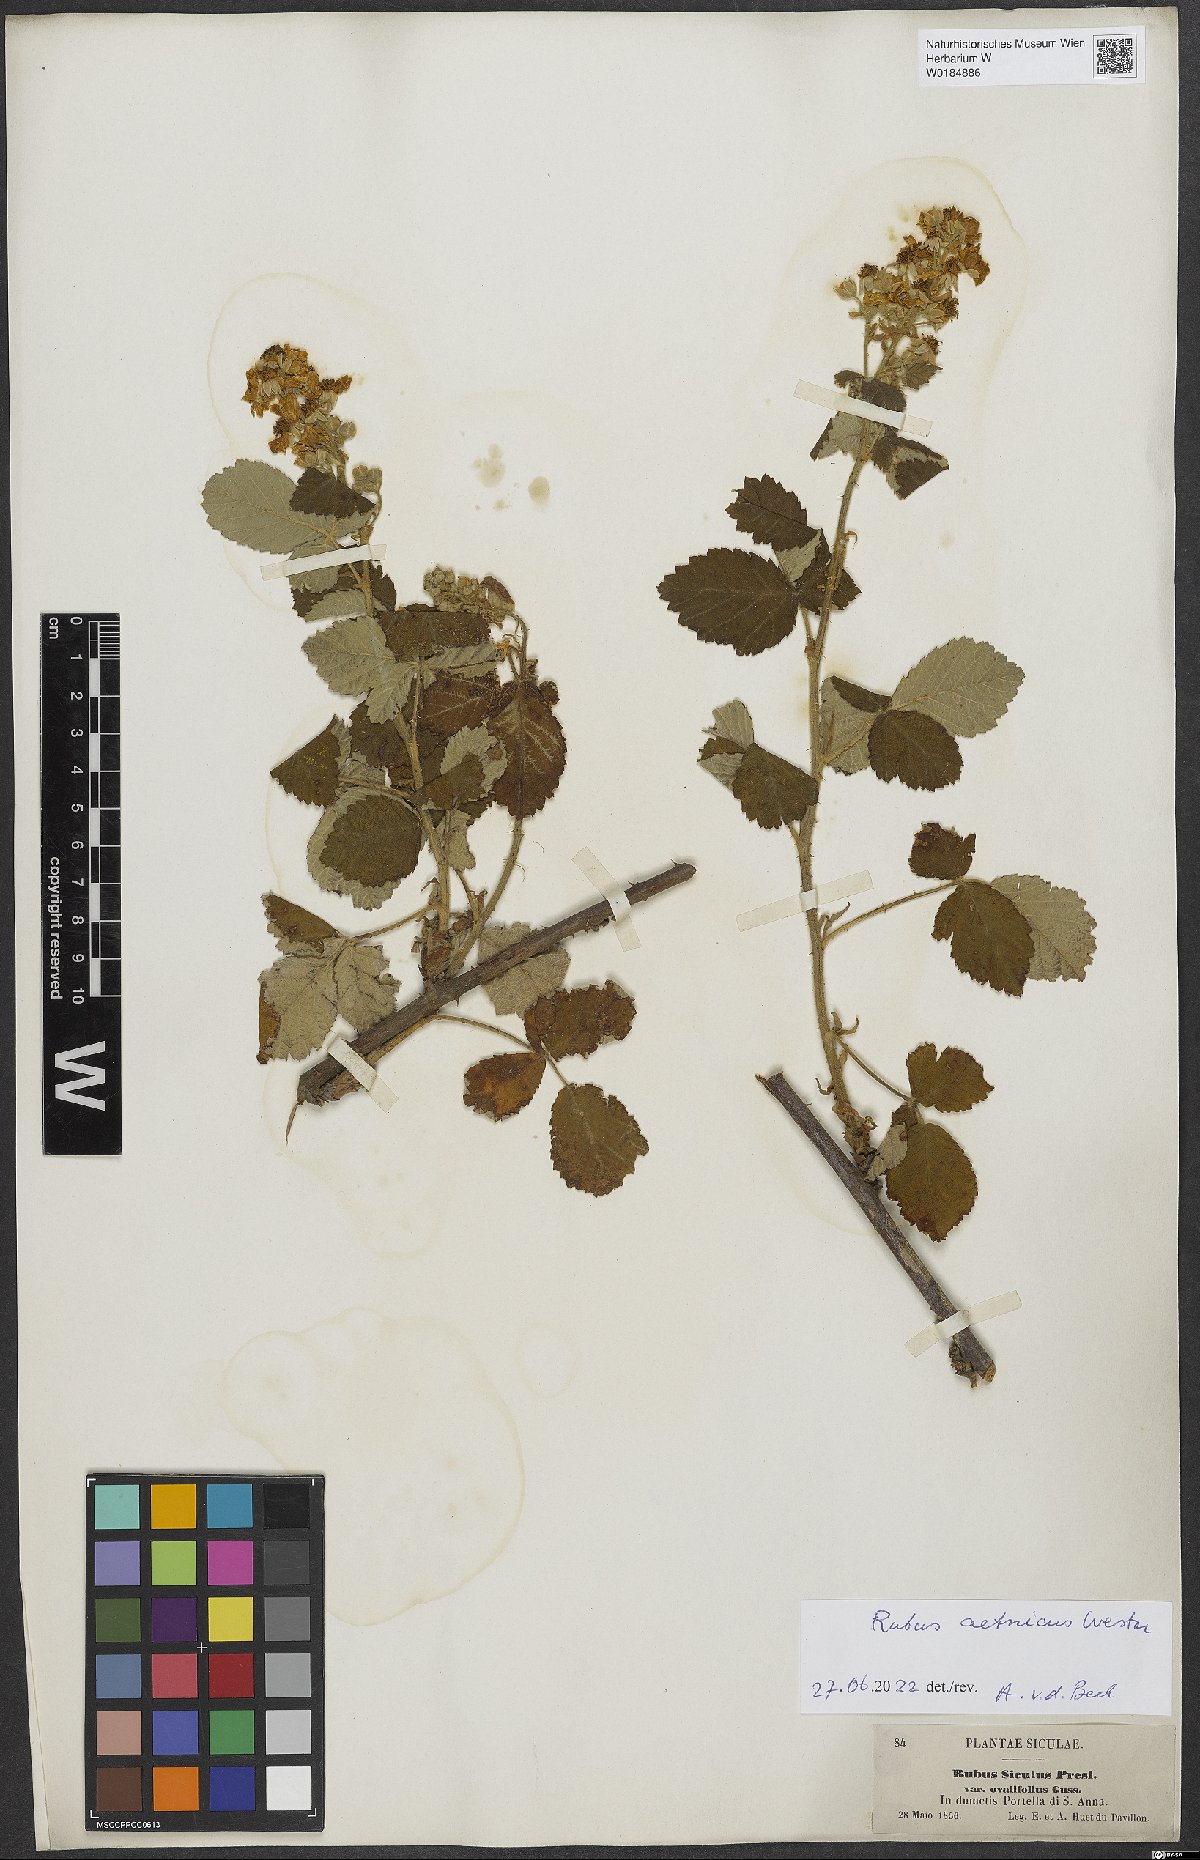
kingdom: Plantae
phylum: Tracheophyta
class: Magnoliopsida
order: Rosales
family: Rosaceae
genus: Rubus
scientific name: Rubus aetnicus
